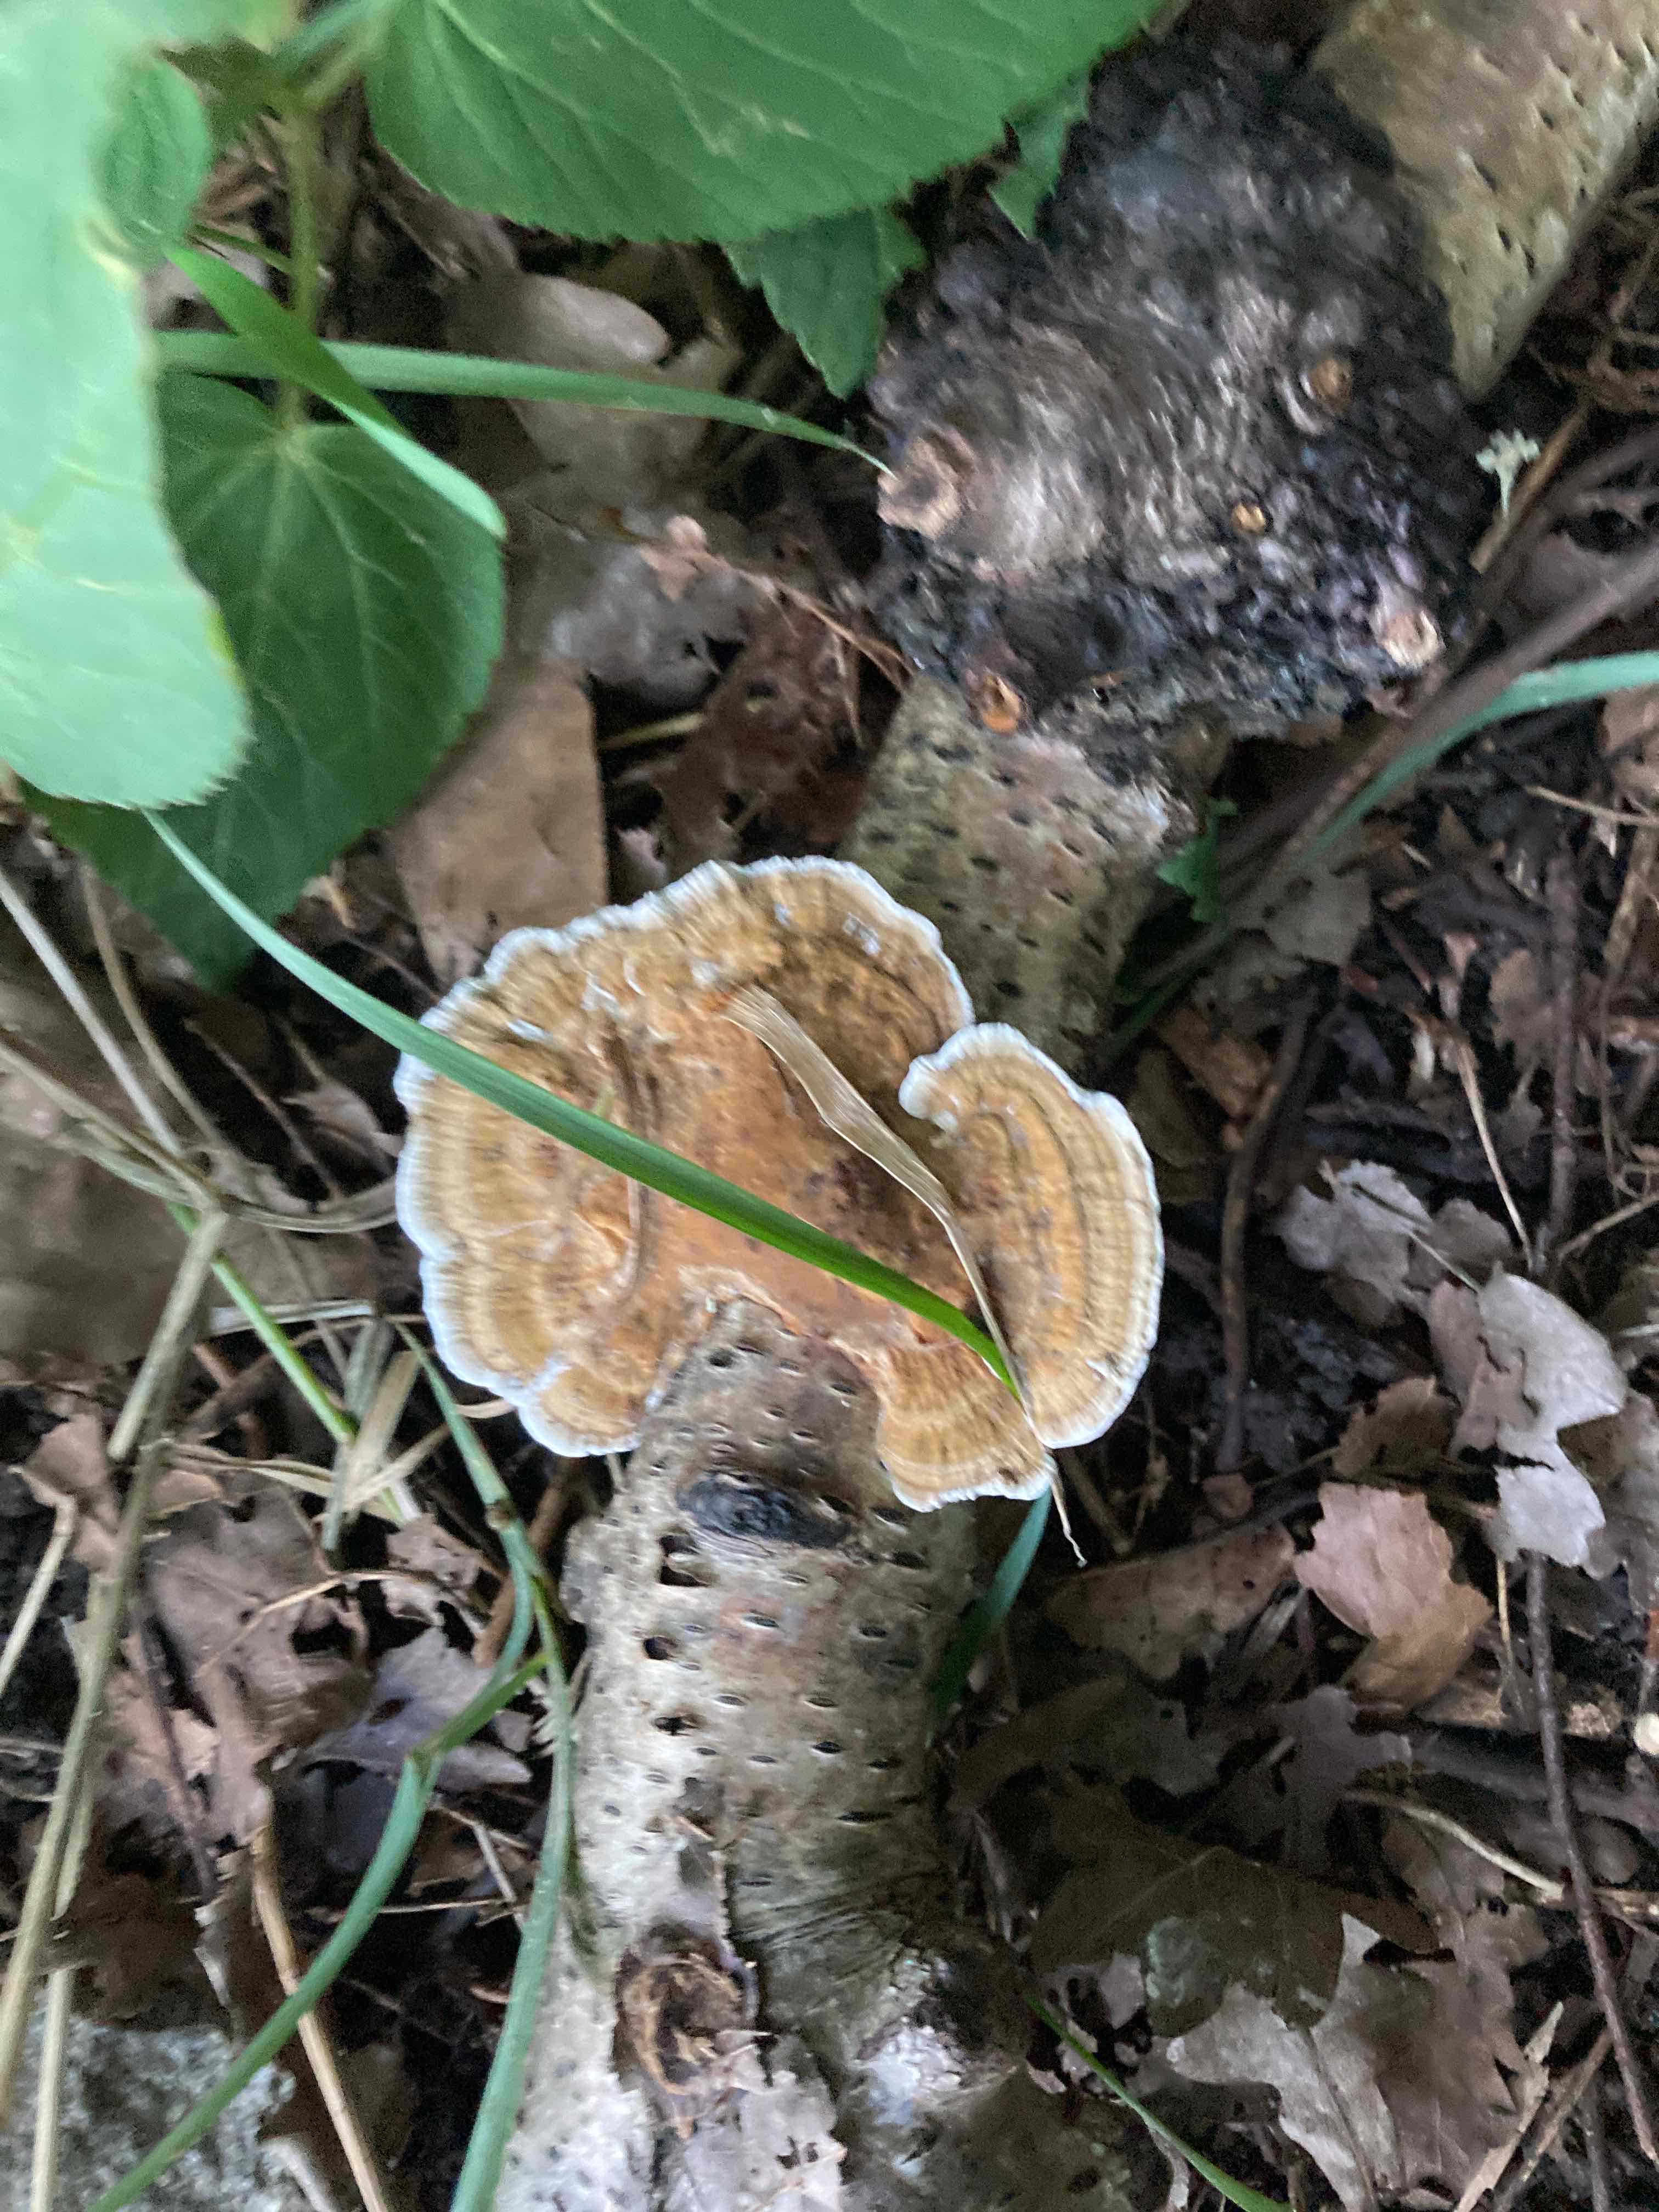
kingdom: Fungi
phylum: Basidiomycota
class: Agaricomycetes
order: Polyporales
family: Polyporaceae
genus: Daedaleopsis
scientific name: Daedaleopsis confragosa
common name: rødmende læderporesvamp
